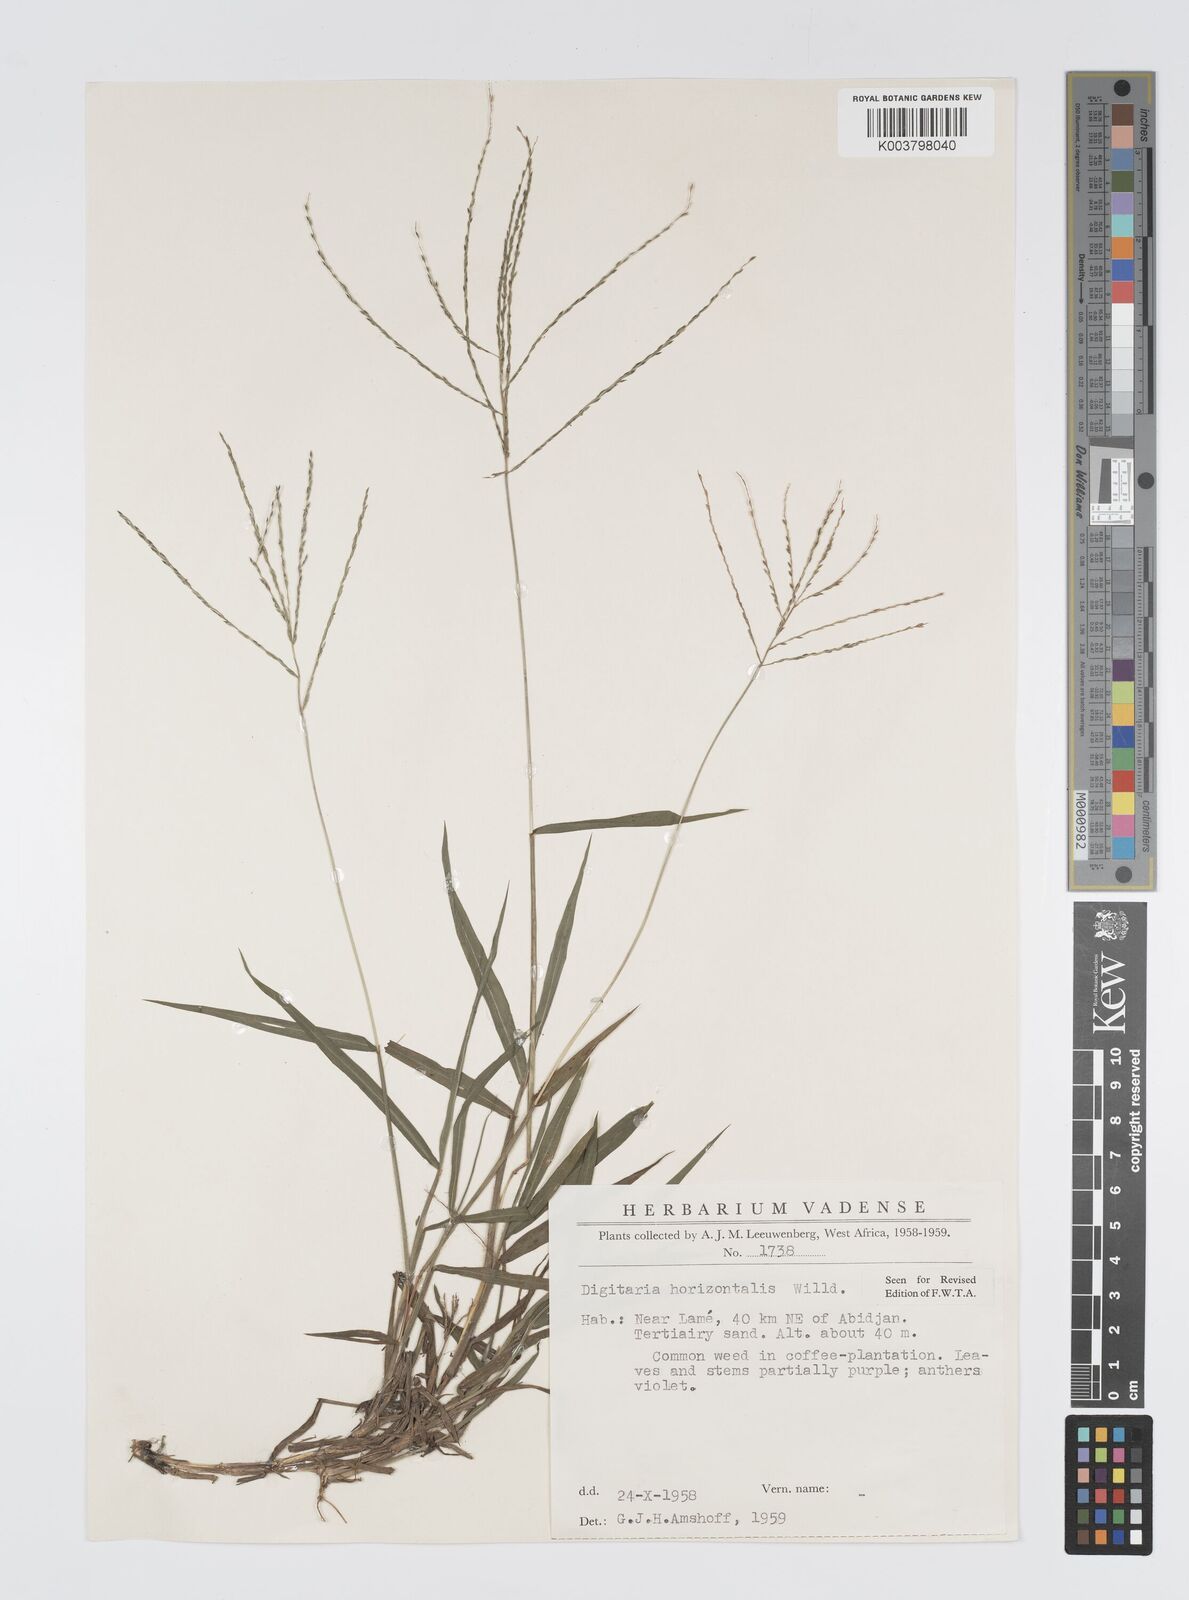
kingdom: Plantae
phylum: Tracheophyta
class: Liliopsida
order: Poales
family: Poaceae
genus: Digitaria
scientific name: Digitaria horizontalis
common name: Jamaican crabgrass
